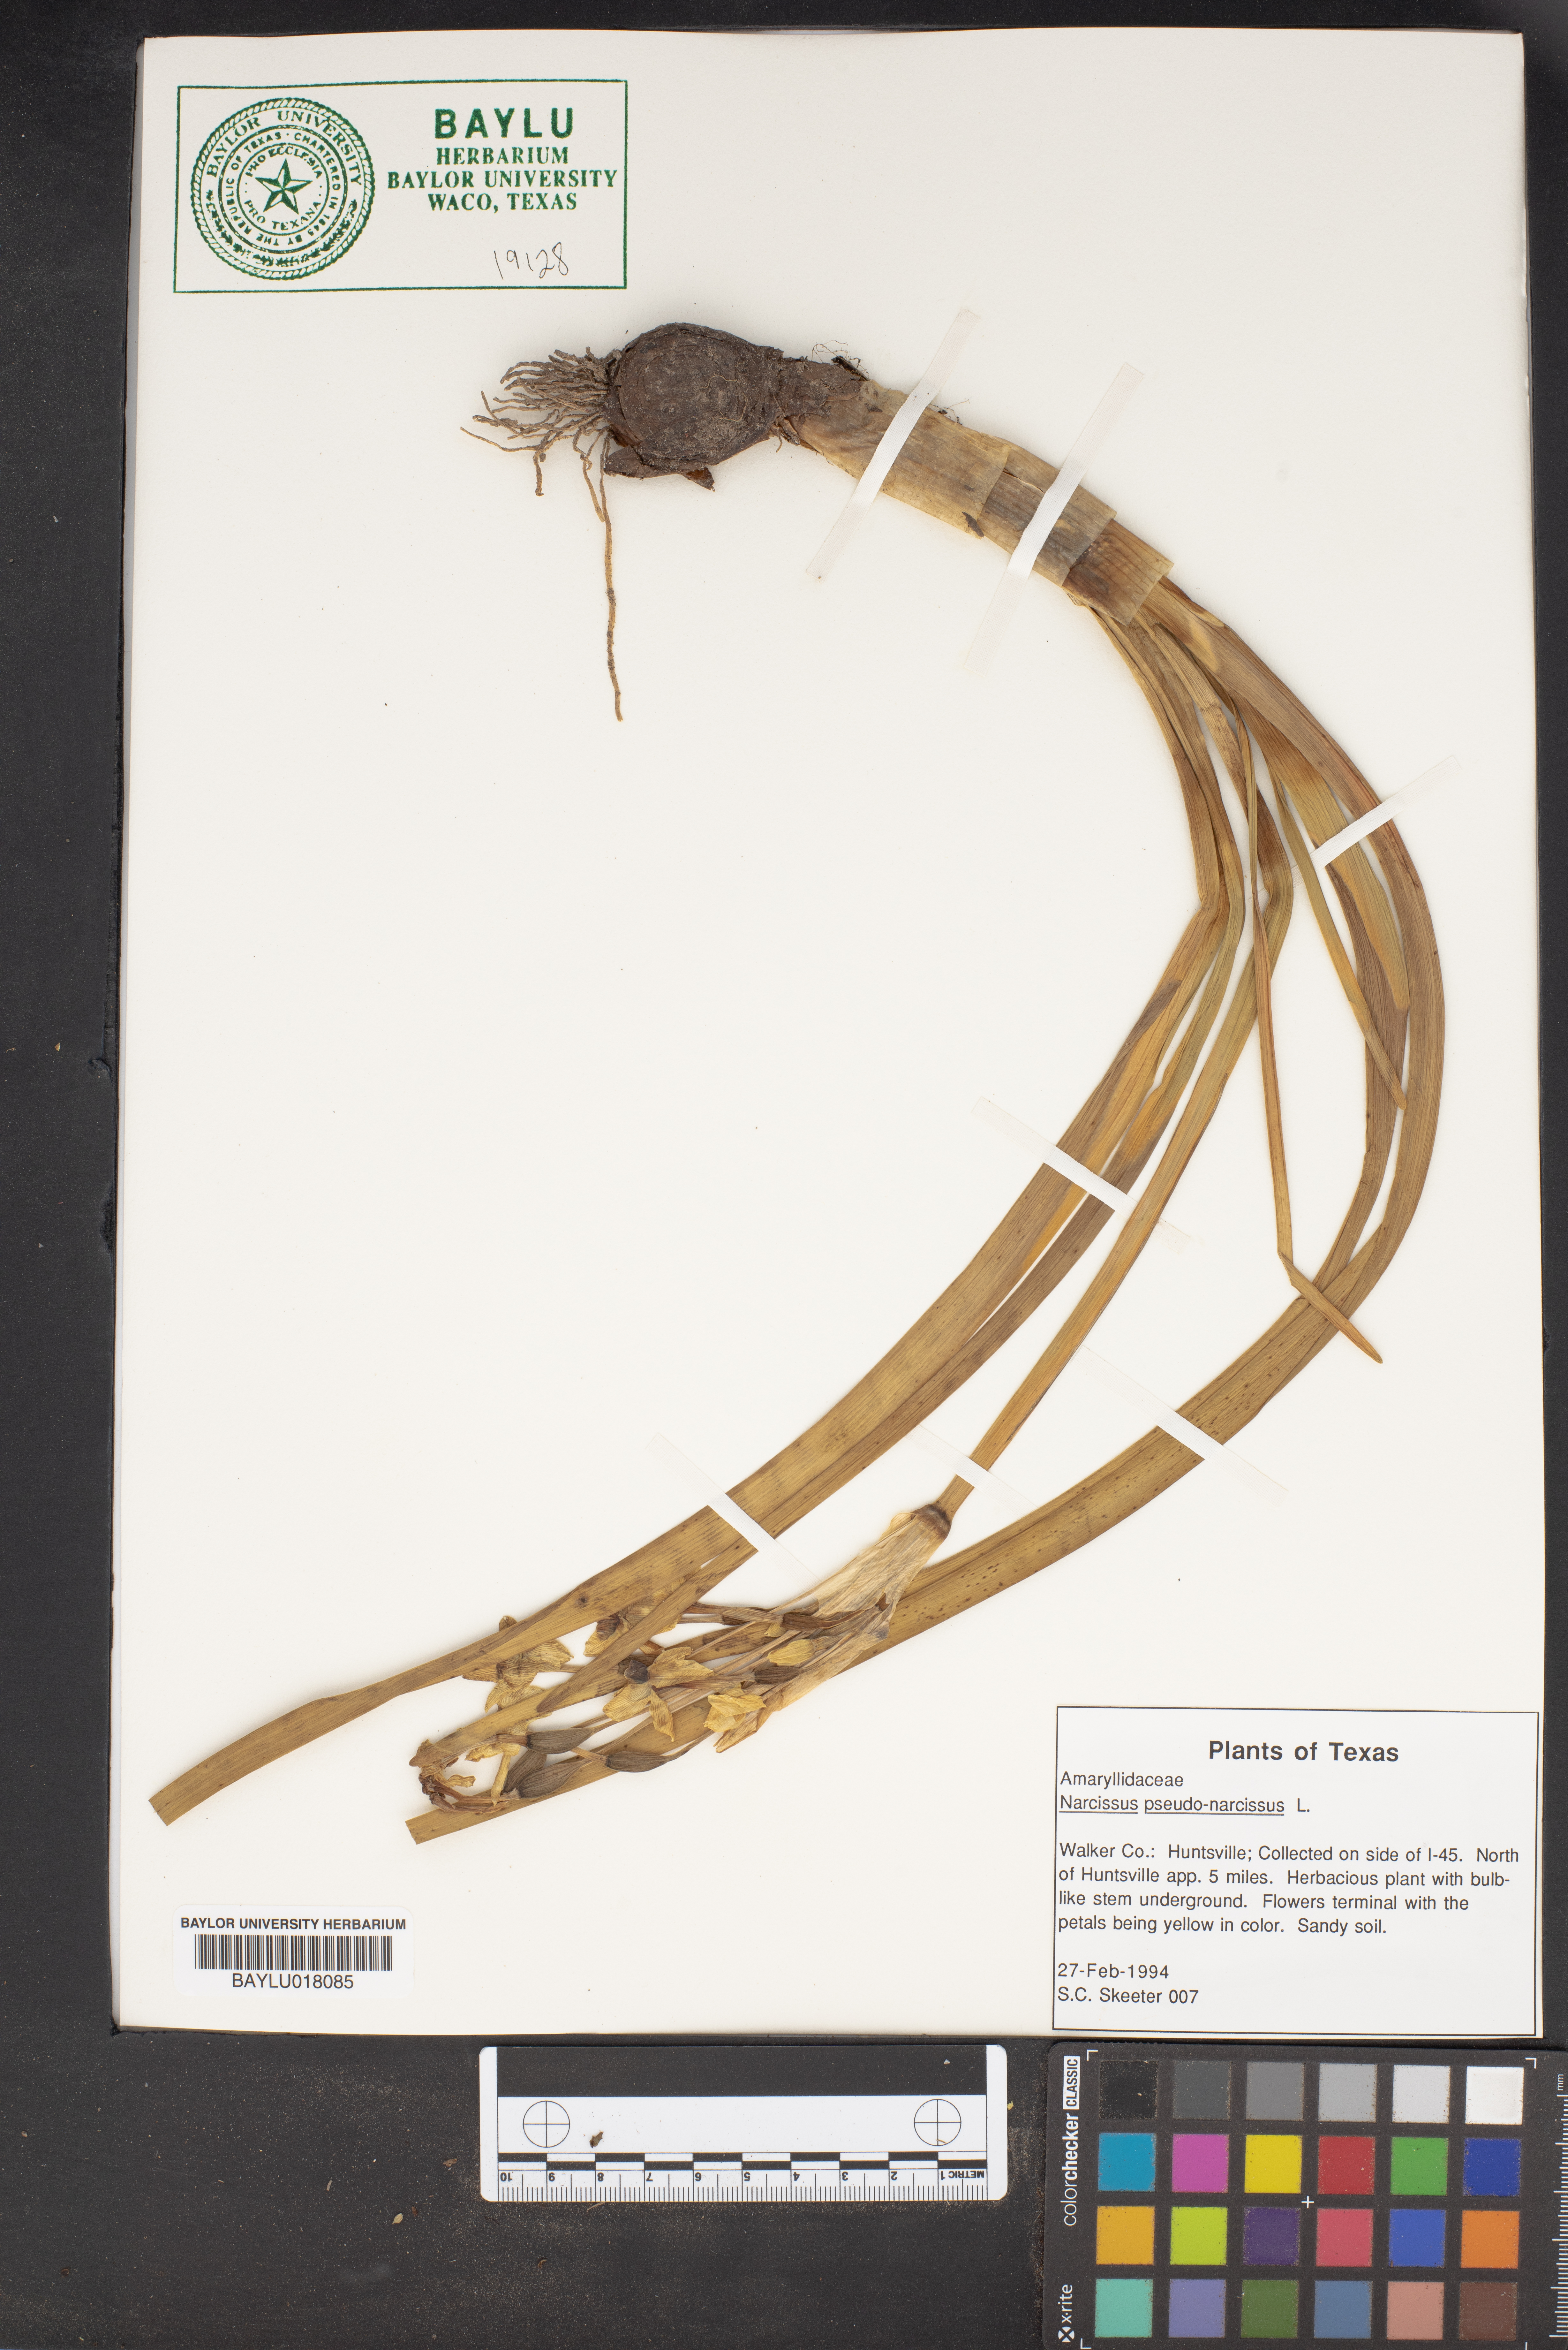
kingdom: Plantae
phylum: Tracheophyta
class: Liliopsida
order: Asparagales
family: Amaryllidaceae
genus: Narcissus
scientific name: Narcissus pseudonarcissus
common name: Daffodil
